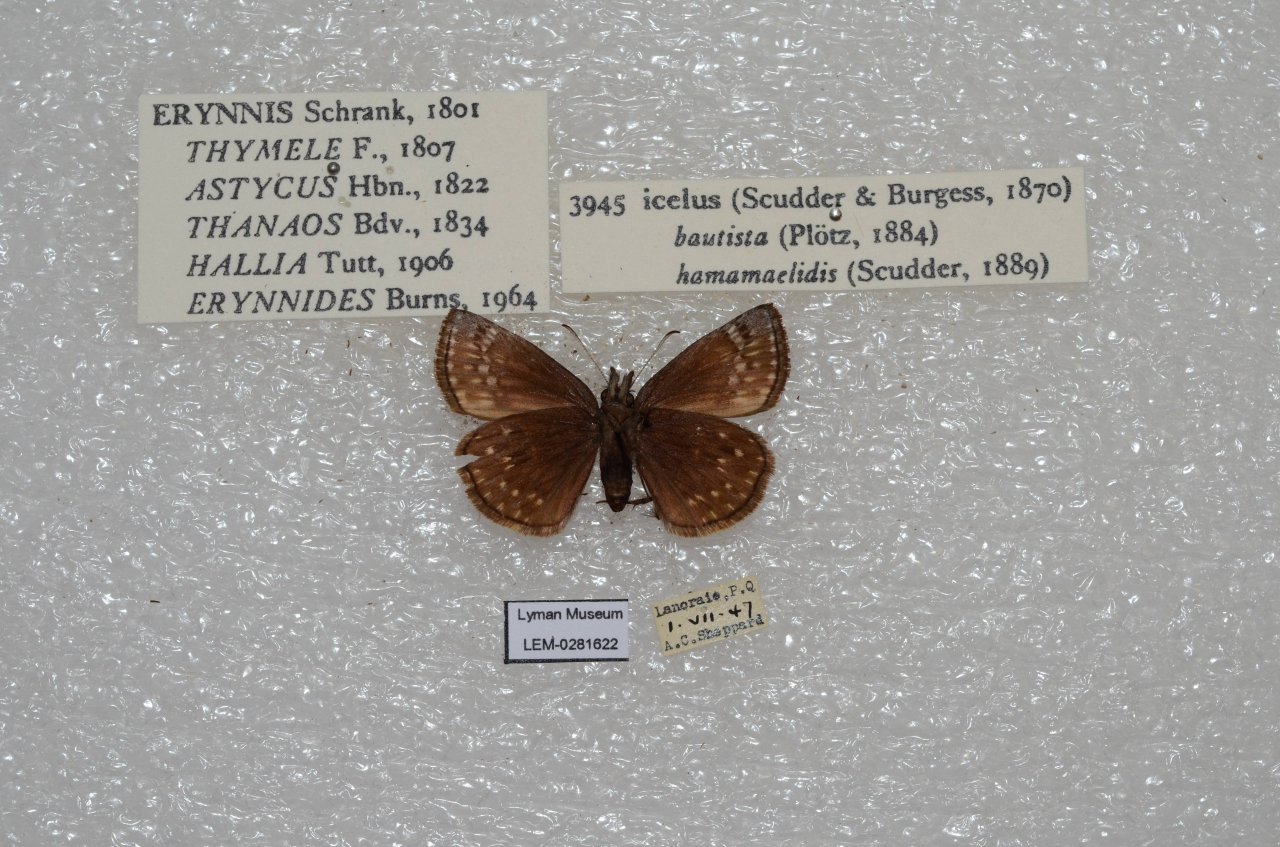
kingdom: Animalia
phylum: Arthropoda
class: Insecta
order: Lepidoptera
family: Hesperiidae
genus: Erynnis
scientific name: Erynnis icelus
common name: Dreamy Duskywing
